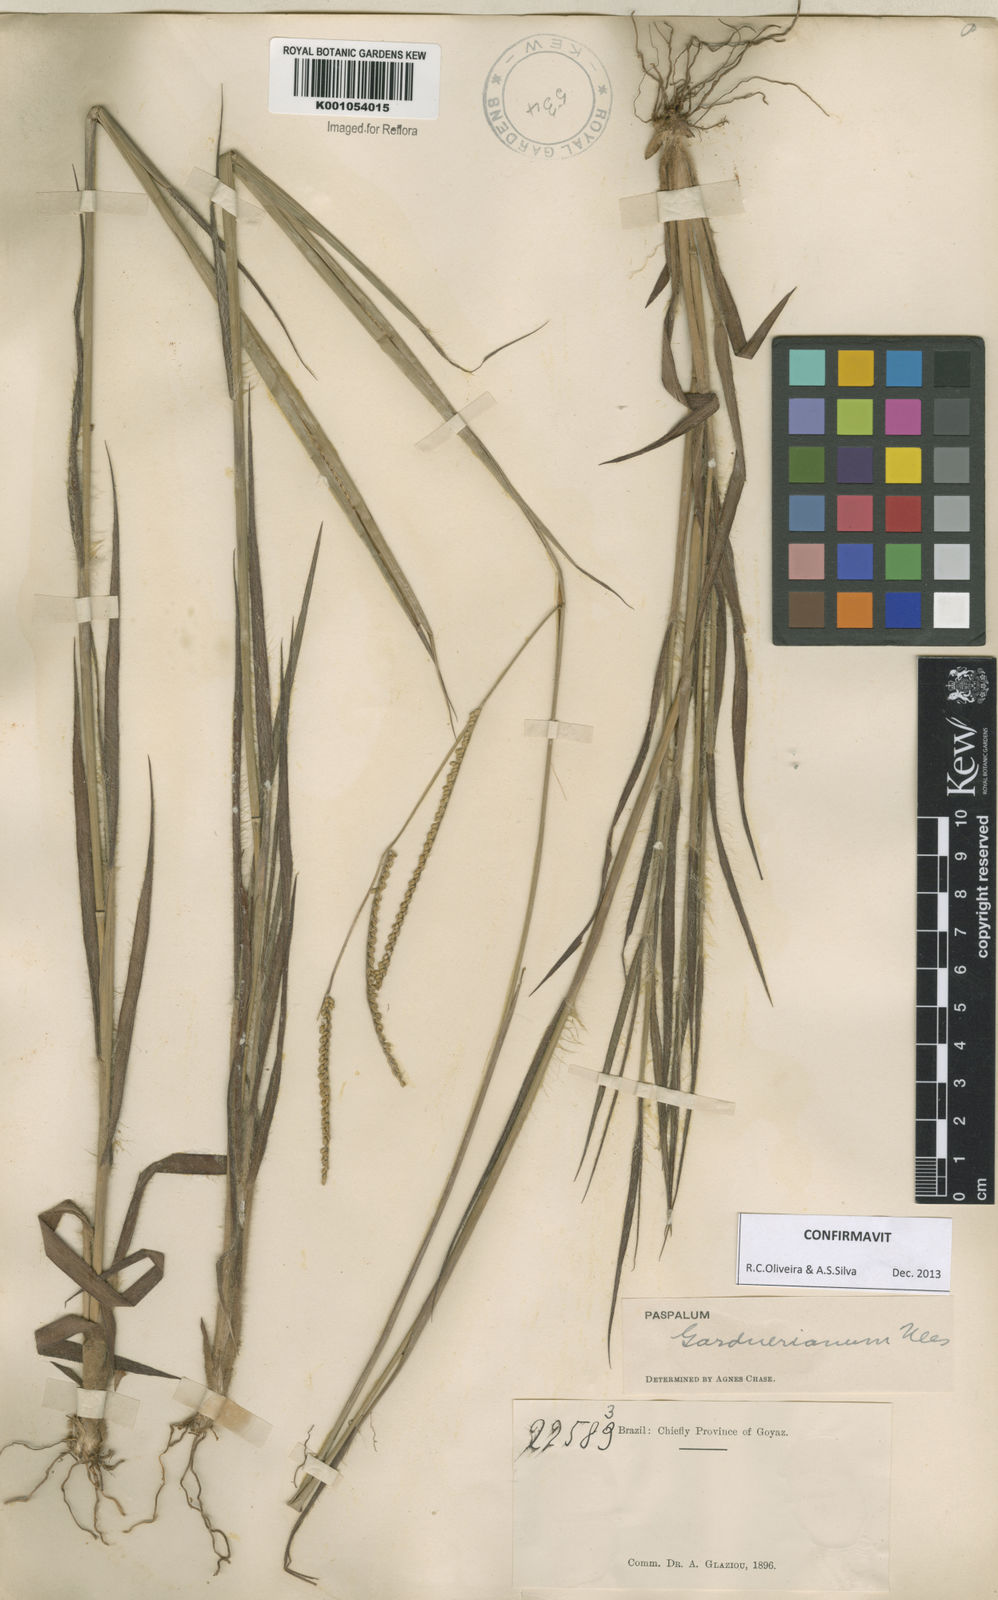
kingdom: Plantae
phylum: Tracheophyta
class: Liliopsida
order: Poales
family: Poaceae
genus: Paspalum
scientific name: Paspalum gardnerianum
